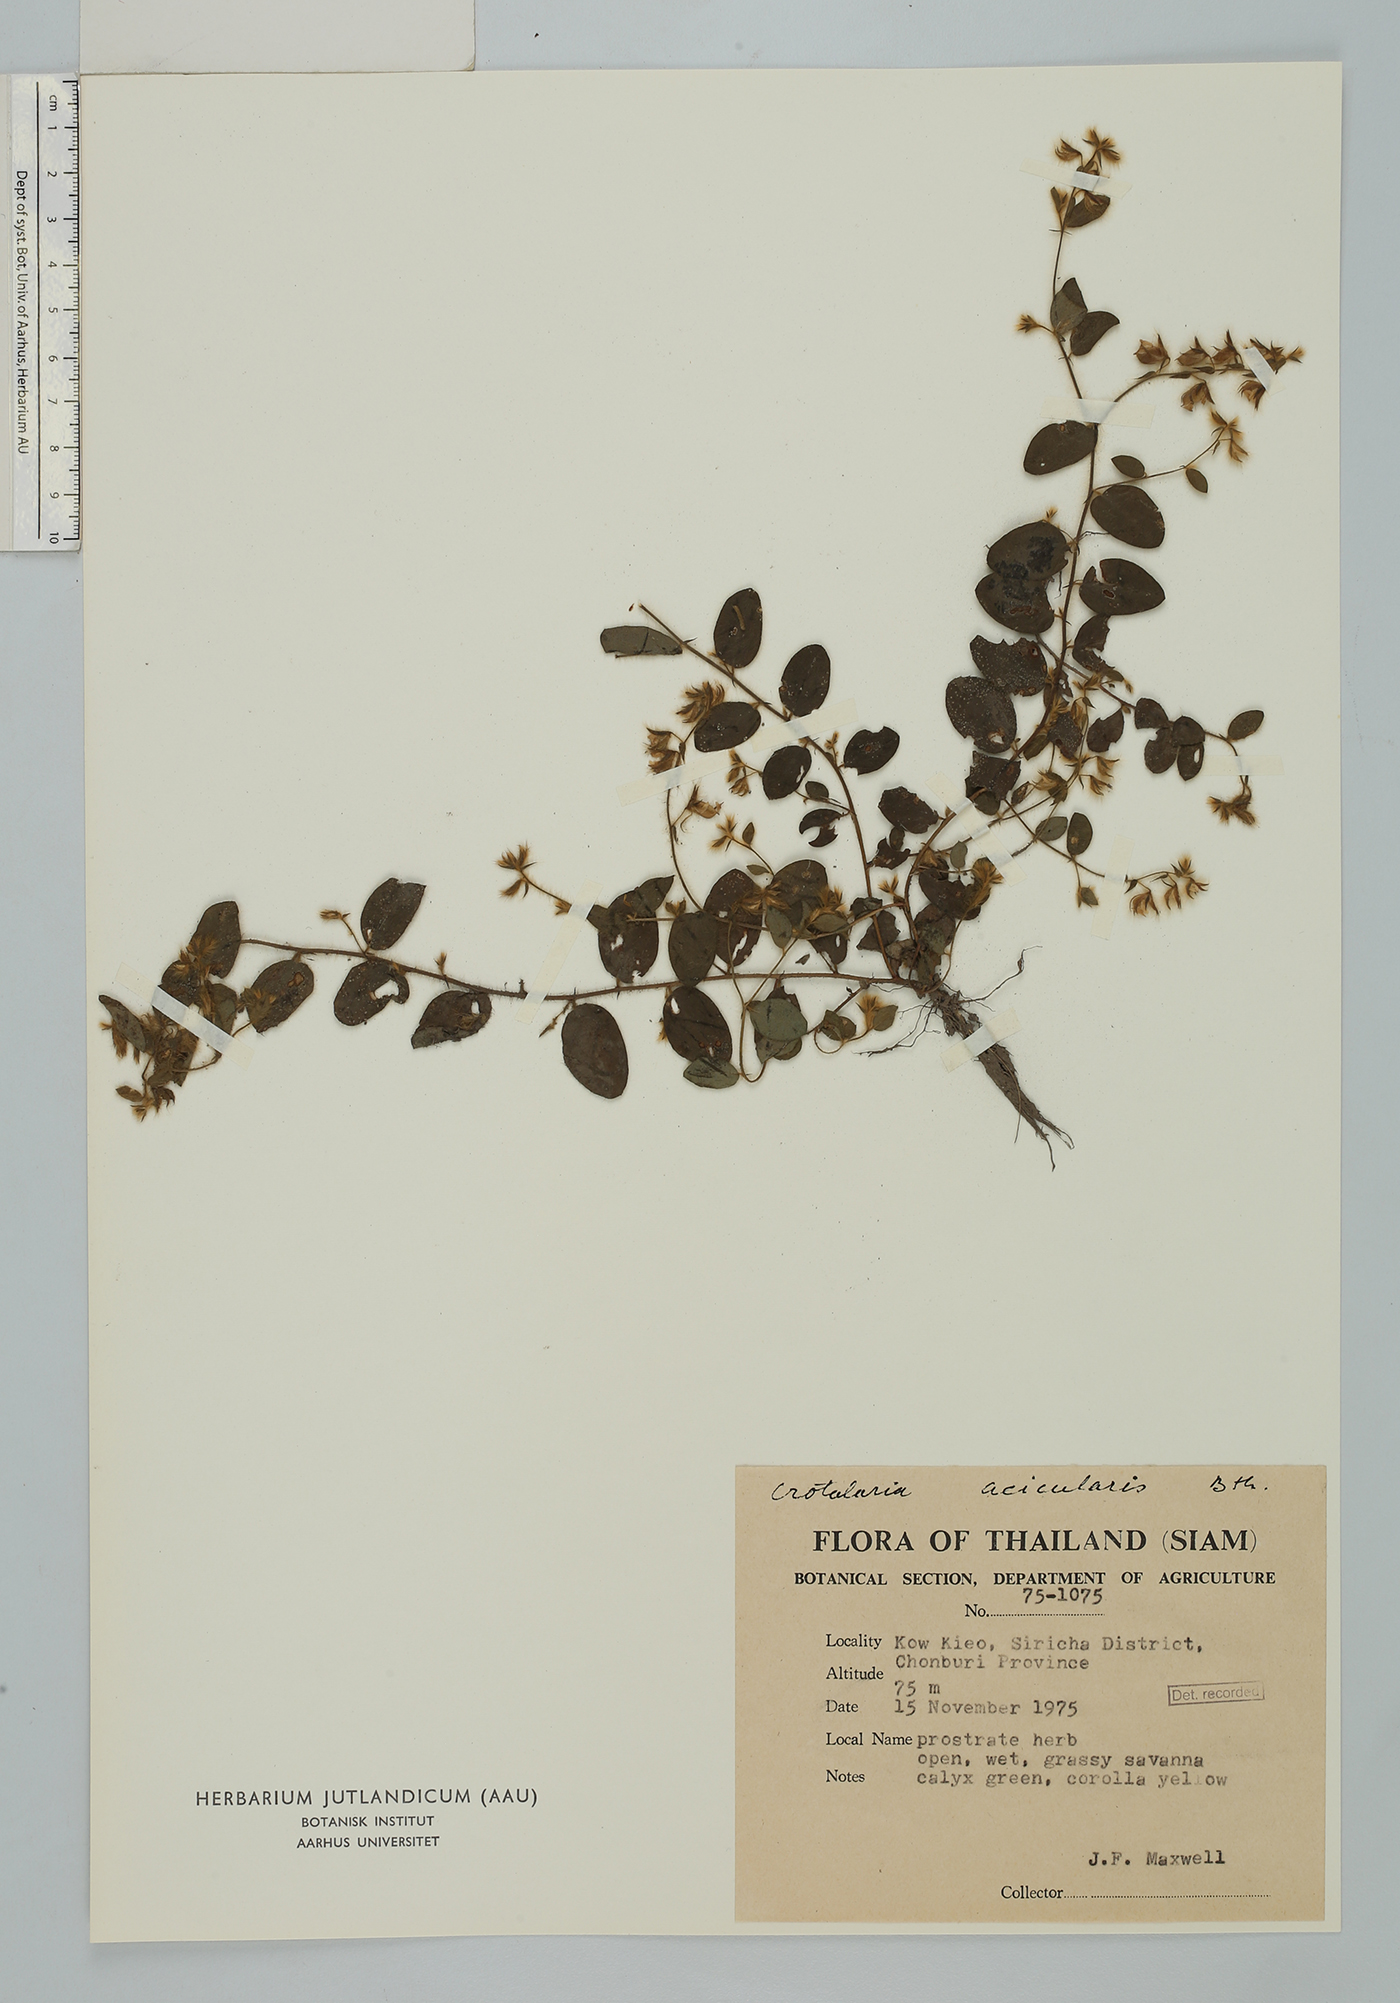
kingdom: Plantae
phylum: Tracheophyta
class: Magnoliopsida
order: Fabales
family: Fabaceae
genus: Crotalaria
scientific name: Crotalaria acicularis
